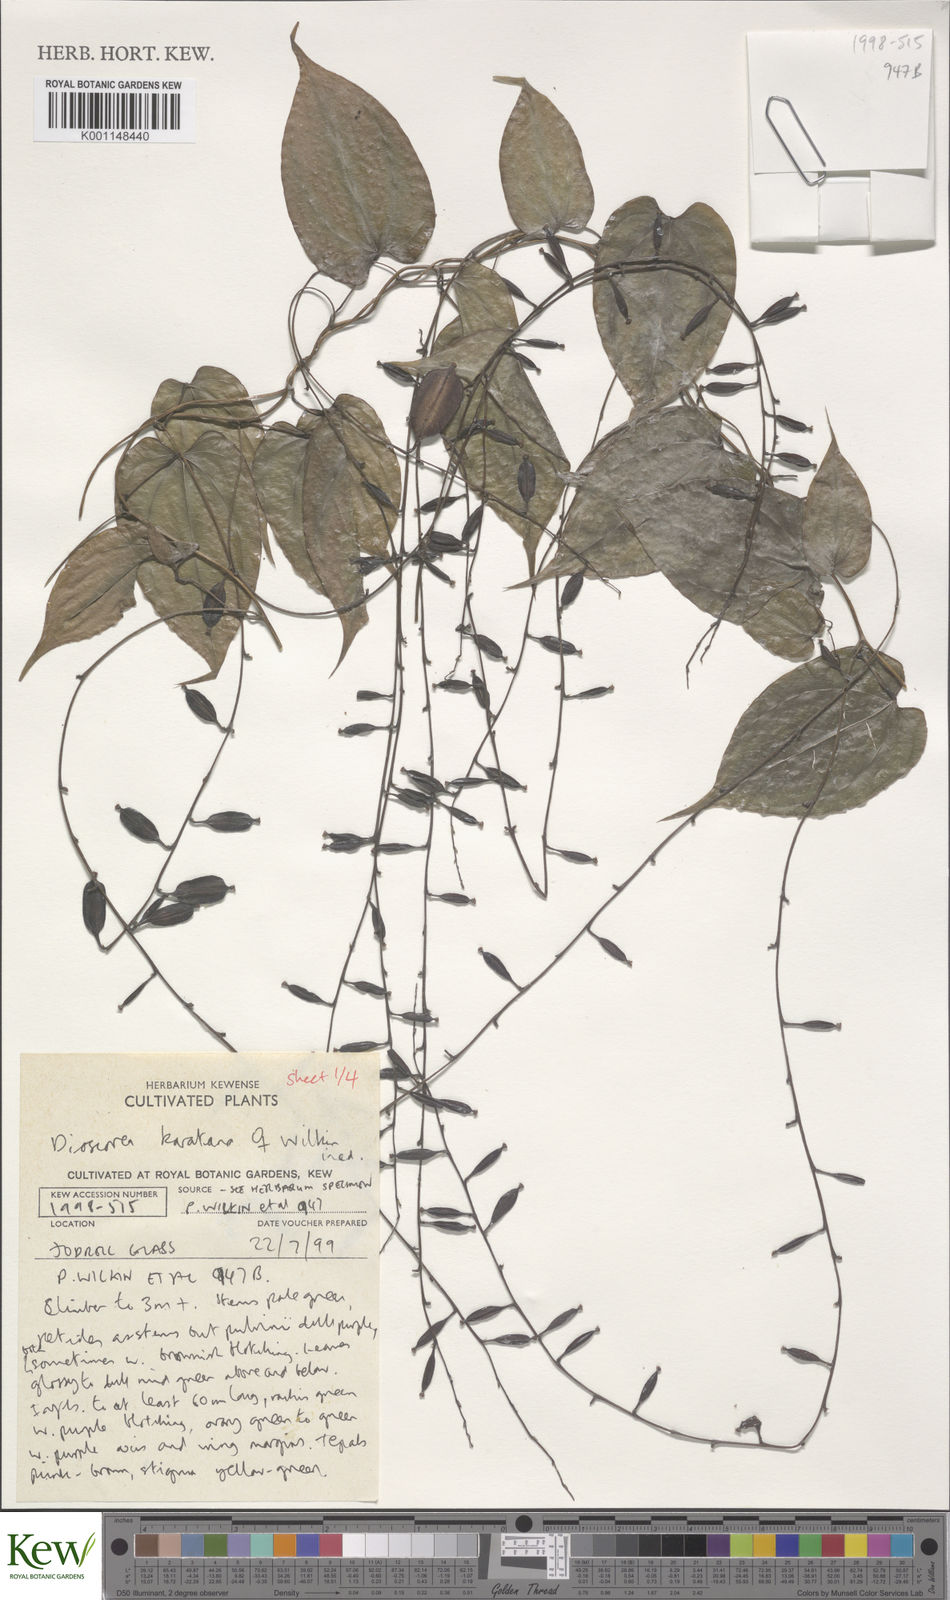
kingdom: Plantae
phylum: Tracheophyta
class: Liliopsida
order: Dioscoreales
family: Dioscoreaceae
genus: Dioscorea
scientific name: Dioscorea madecassa
